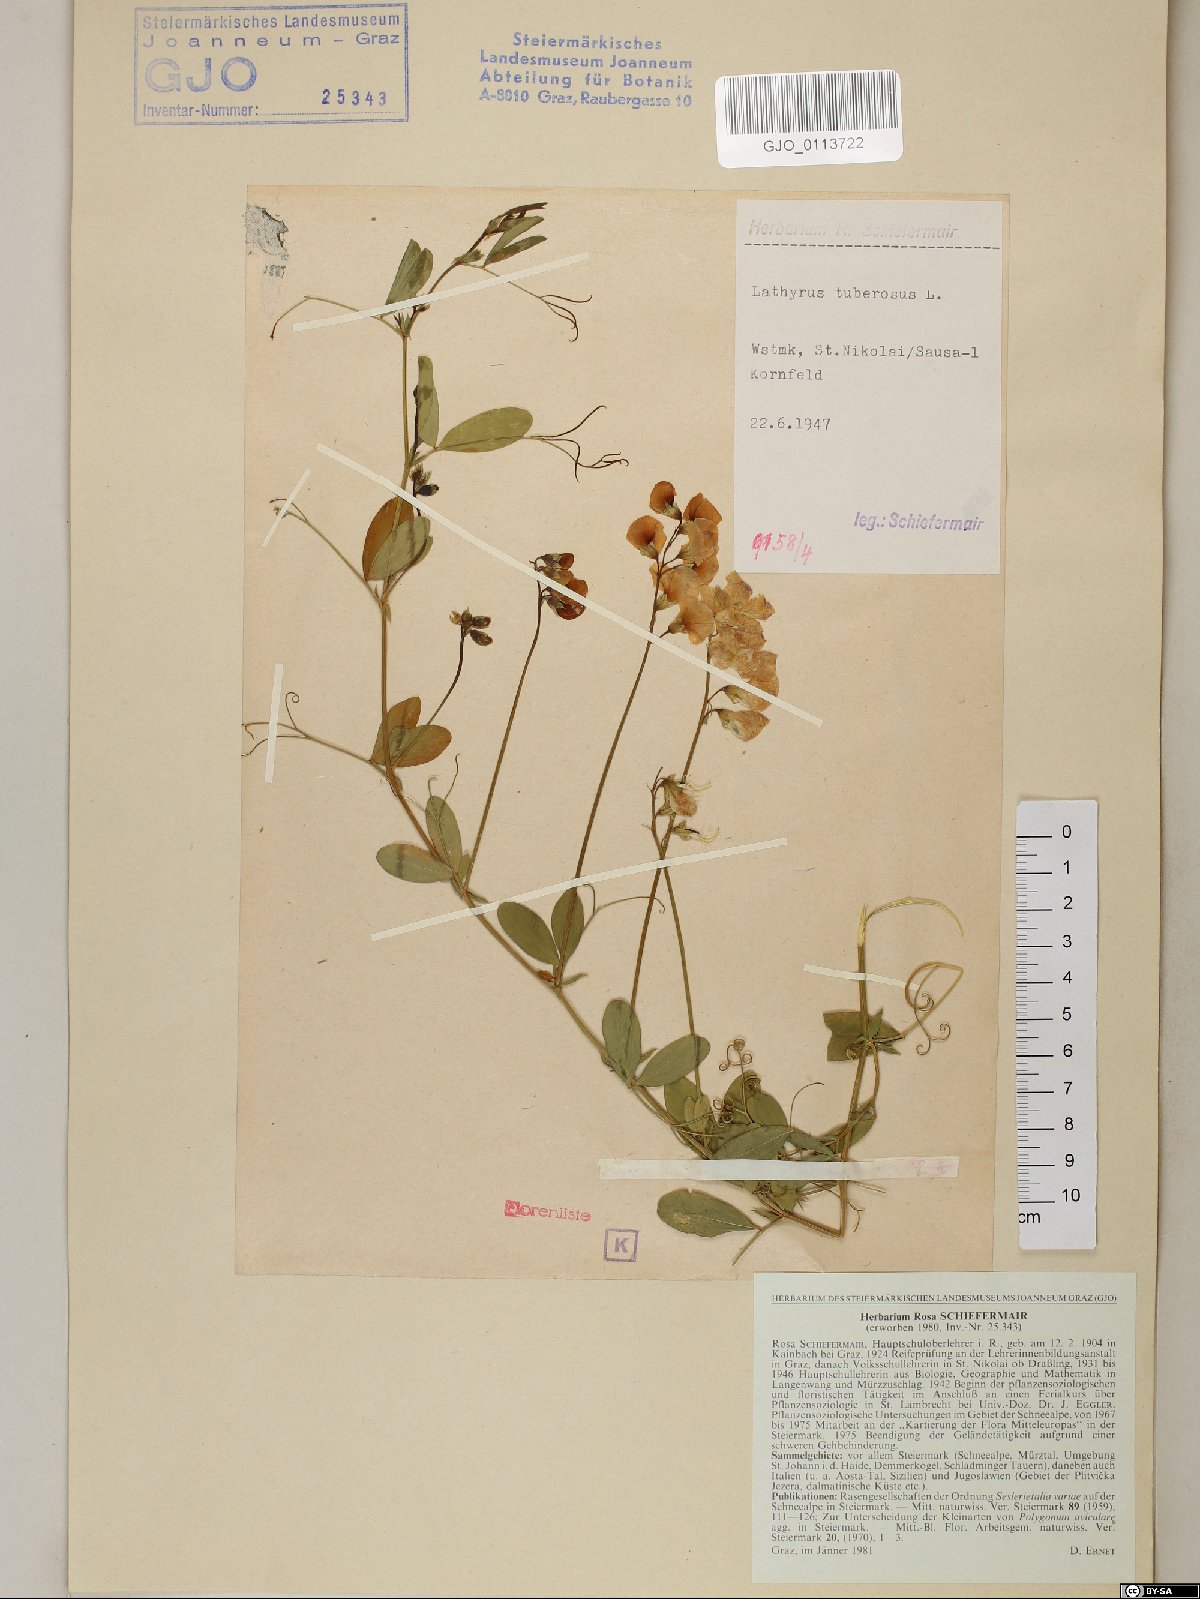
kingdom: Plantae
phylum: Tracheophyta
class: Magnoliopsida
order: Fabales
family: Fabaceae
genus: Lathyrus
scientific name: Lathyrus tuberosus
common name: Tuberous pea
